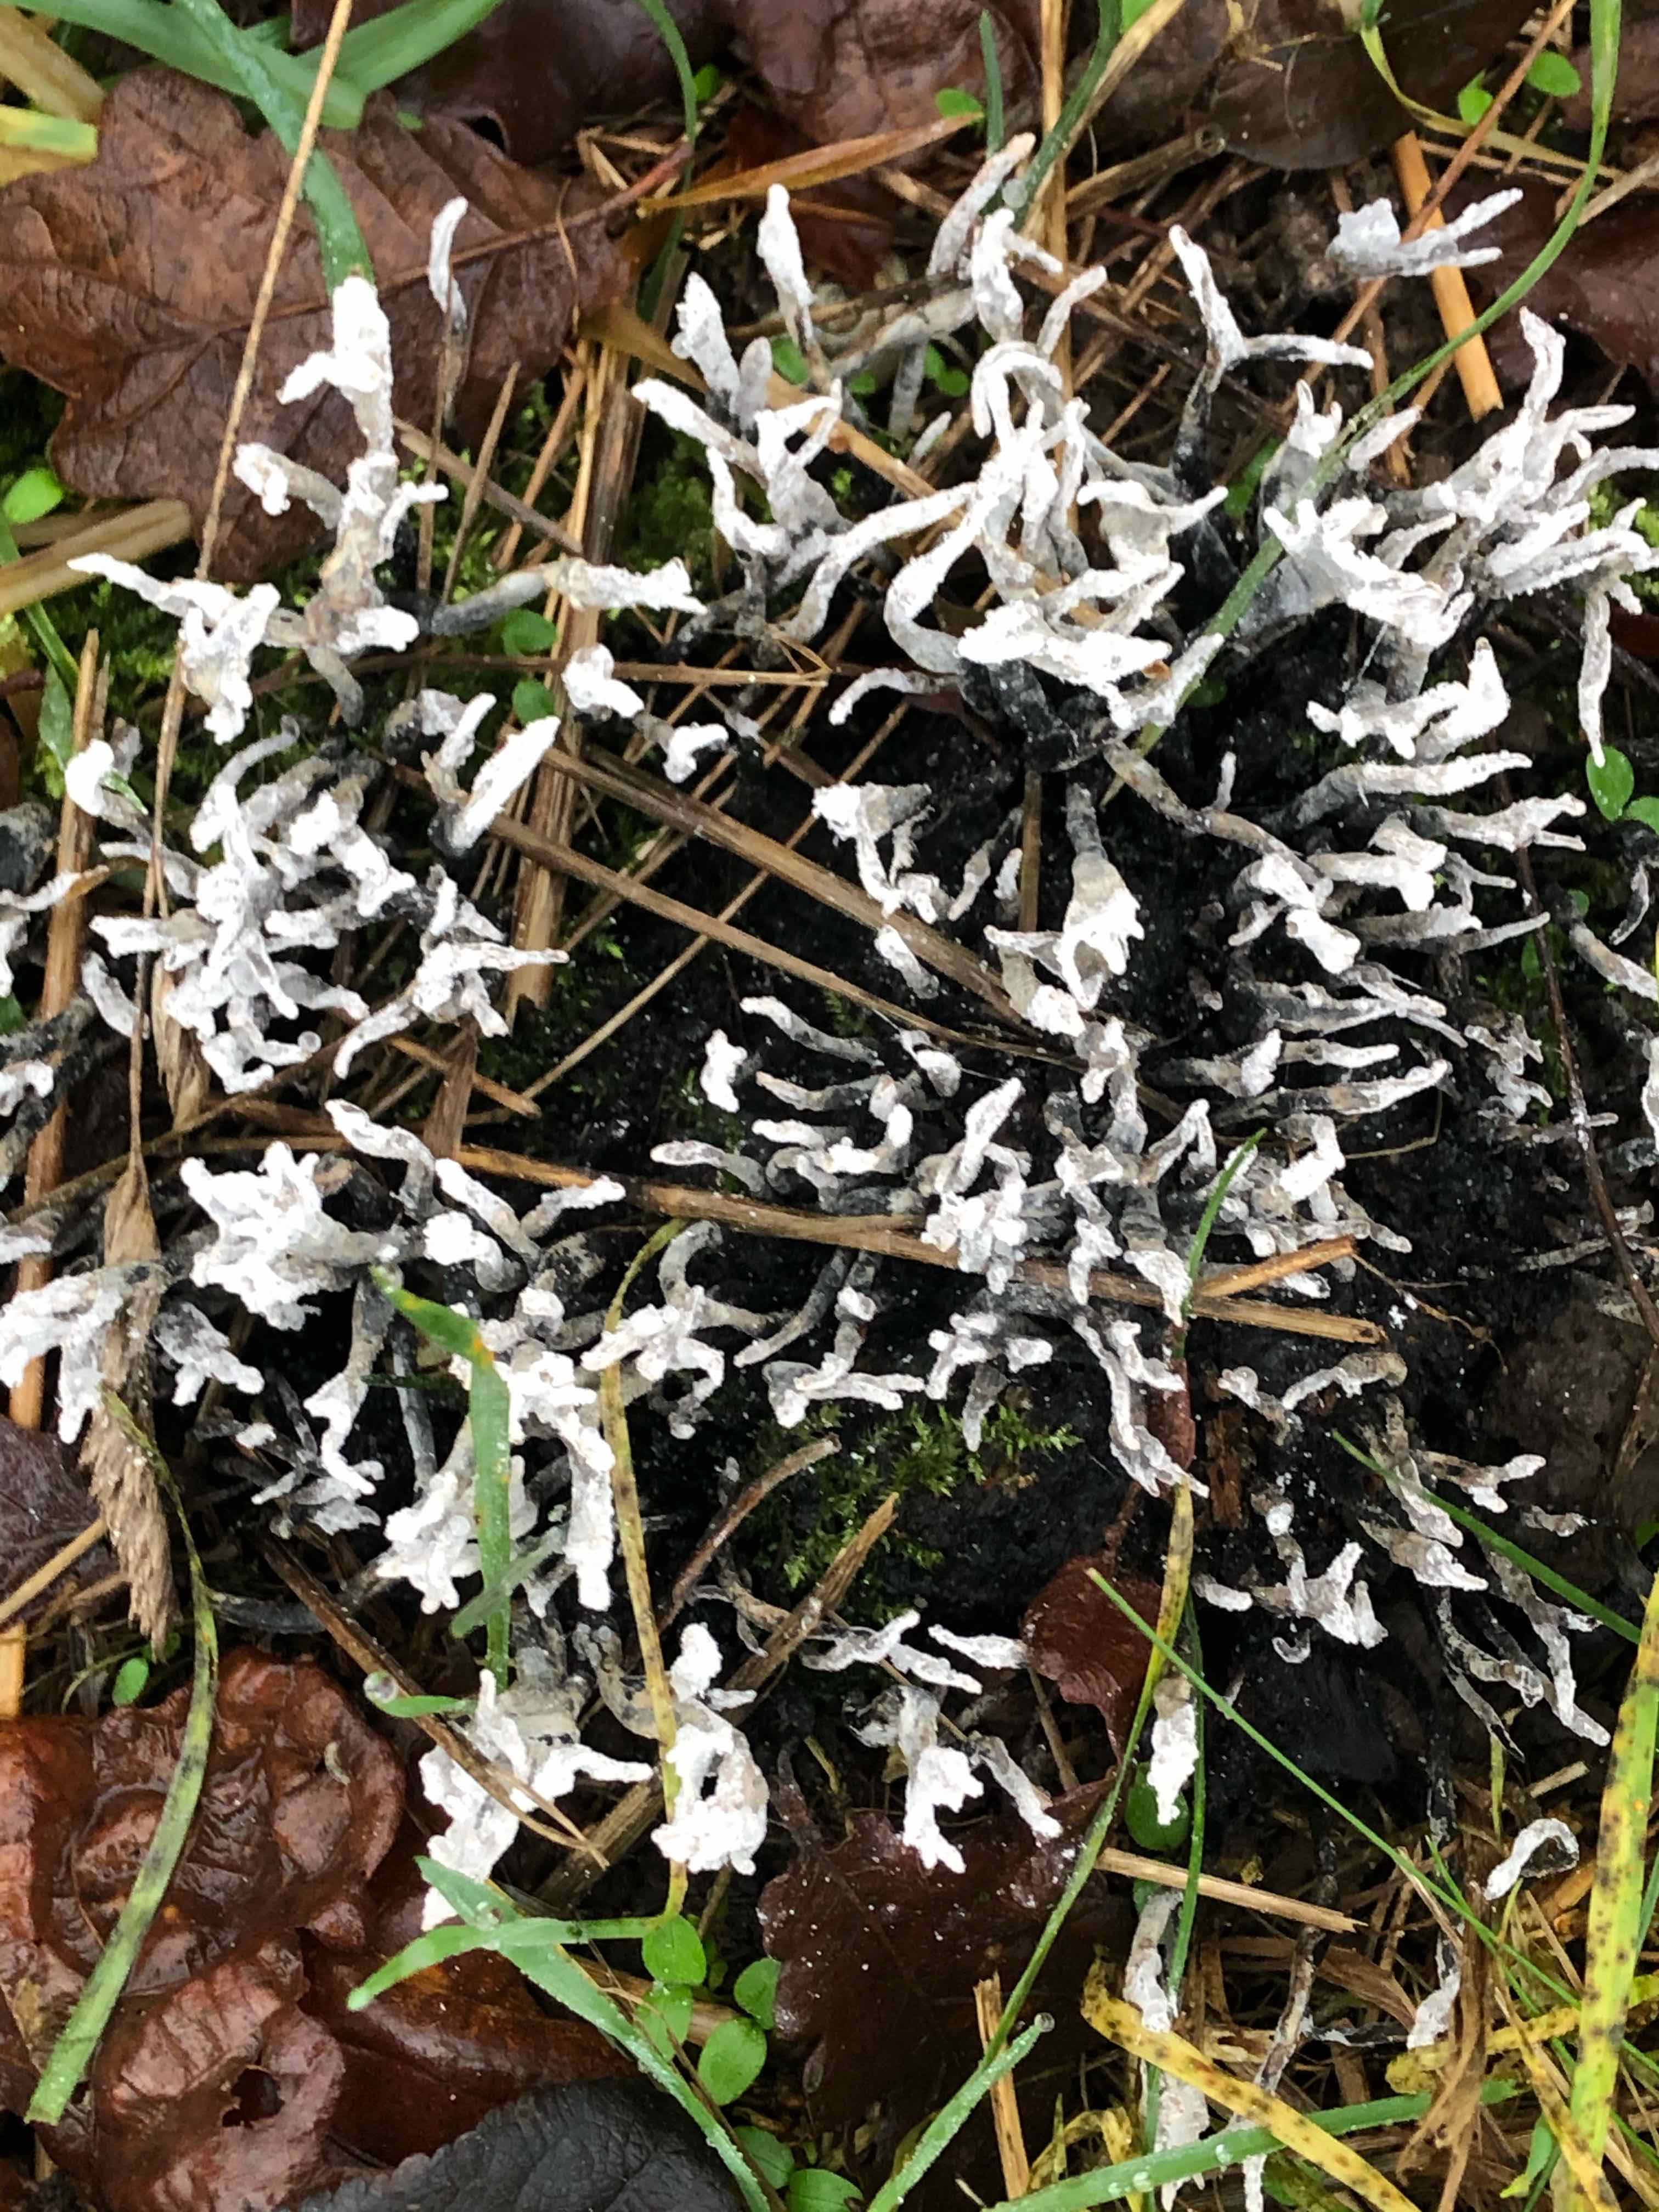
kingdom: Fungi
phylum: Ascomycota
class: Sordariomycetes
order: Xylariales
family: Xylariaceae
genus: Xylaria
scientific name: Xylaria hypoxylon
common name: grenet stødsvamp
